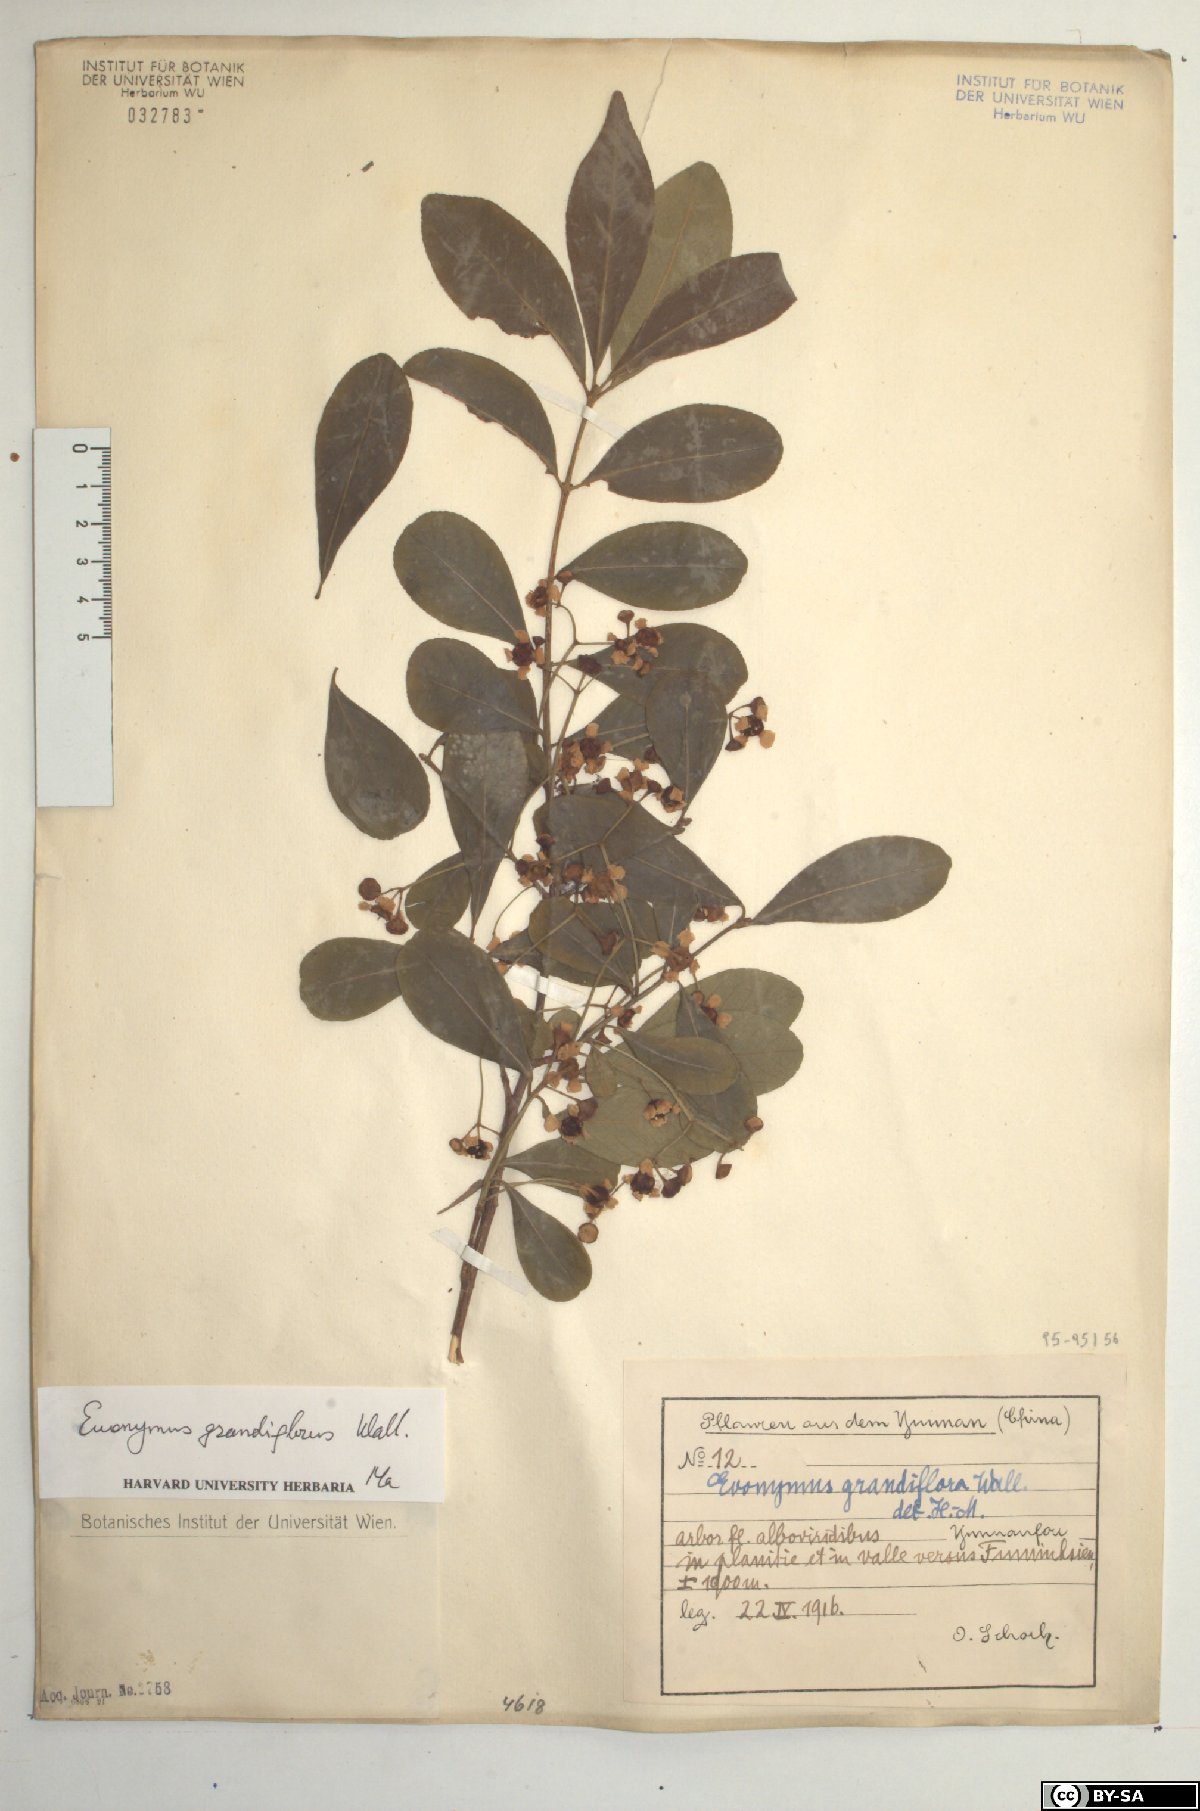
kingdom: Plantae
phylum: Tracheophyta
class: Magnoliopsida
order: Celastrales
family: Celastraceae
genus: Euonymus
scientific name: Euonymus grandiflorus
